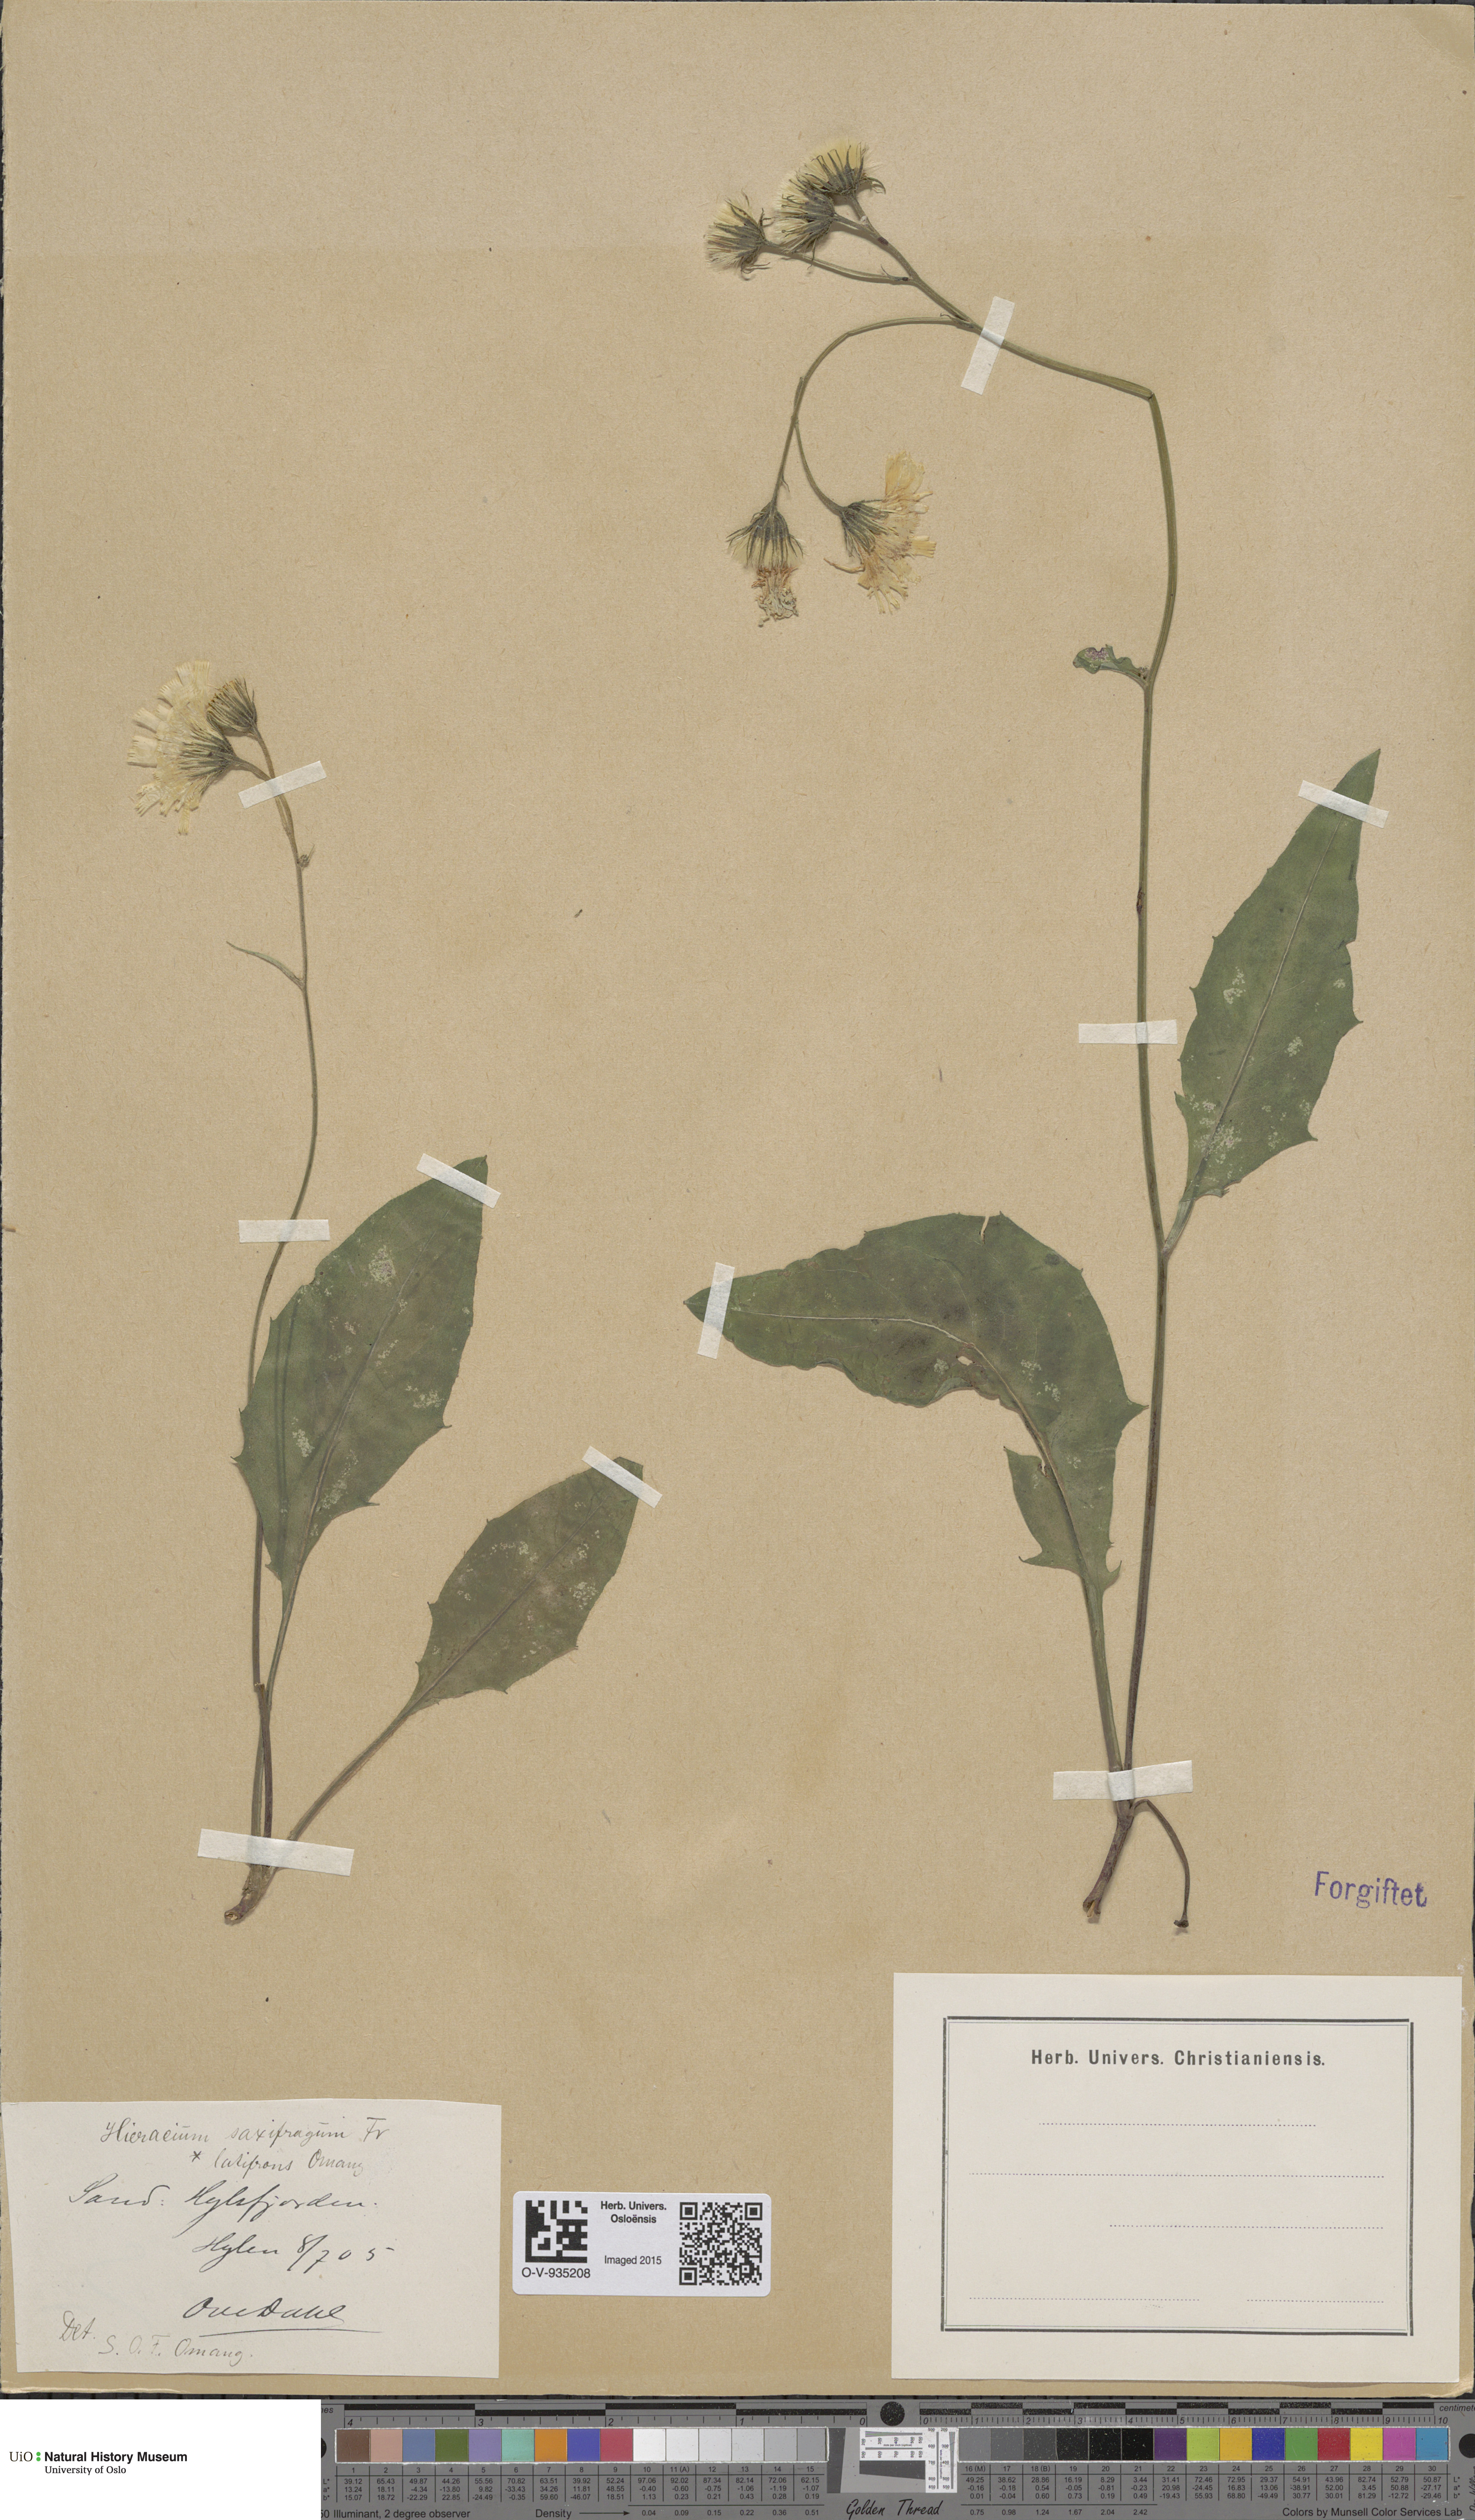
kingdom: Plantae
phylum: Tracheophyta
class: Magnoliopsida
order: Asterales
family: Asteraceae
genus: Hieracium
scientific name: Hieracium saxifragum
